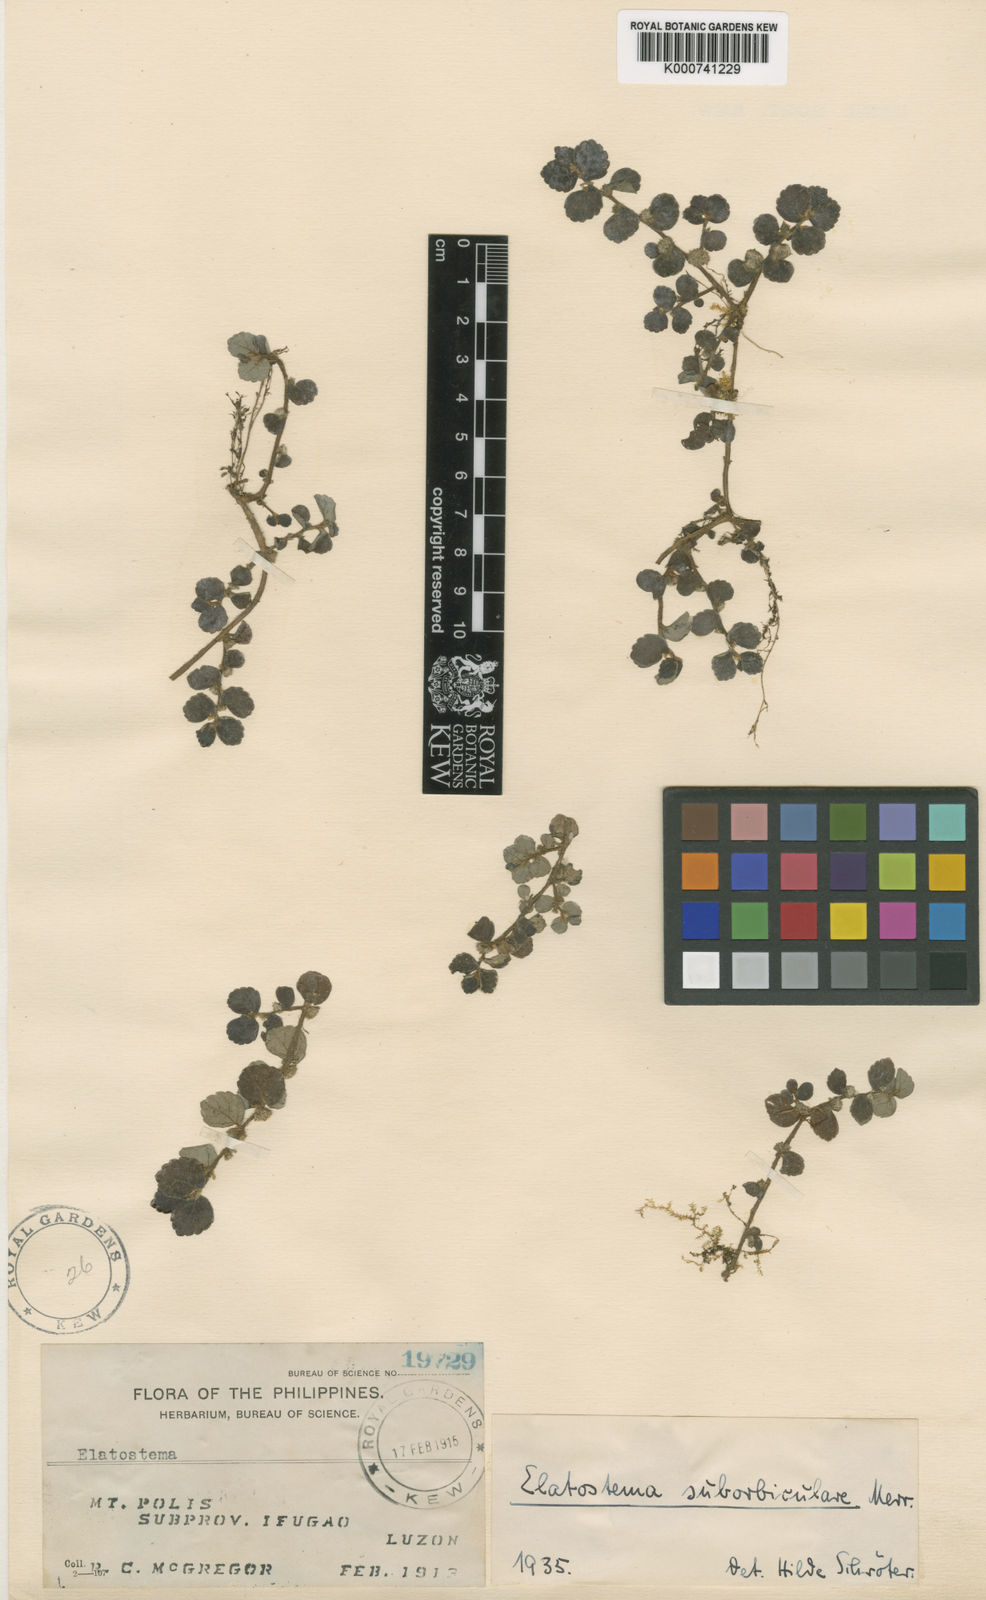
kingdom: Plantae
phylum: Tracheophyta
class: Magnoliopsida
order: Rosales
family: Urticaceae
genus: Elatostema
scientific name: Elatostema suborbiculare
